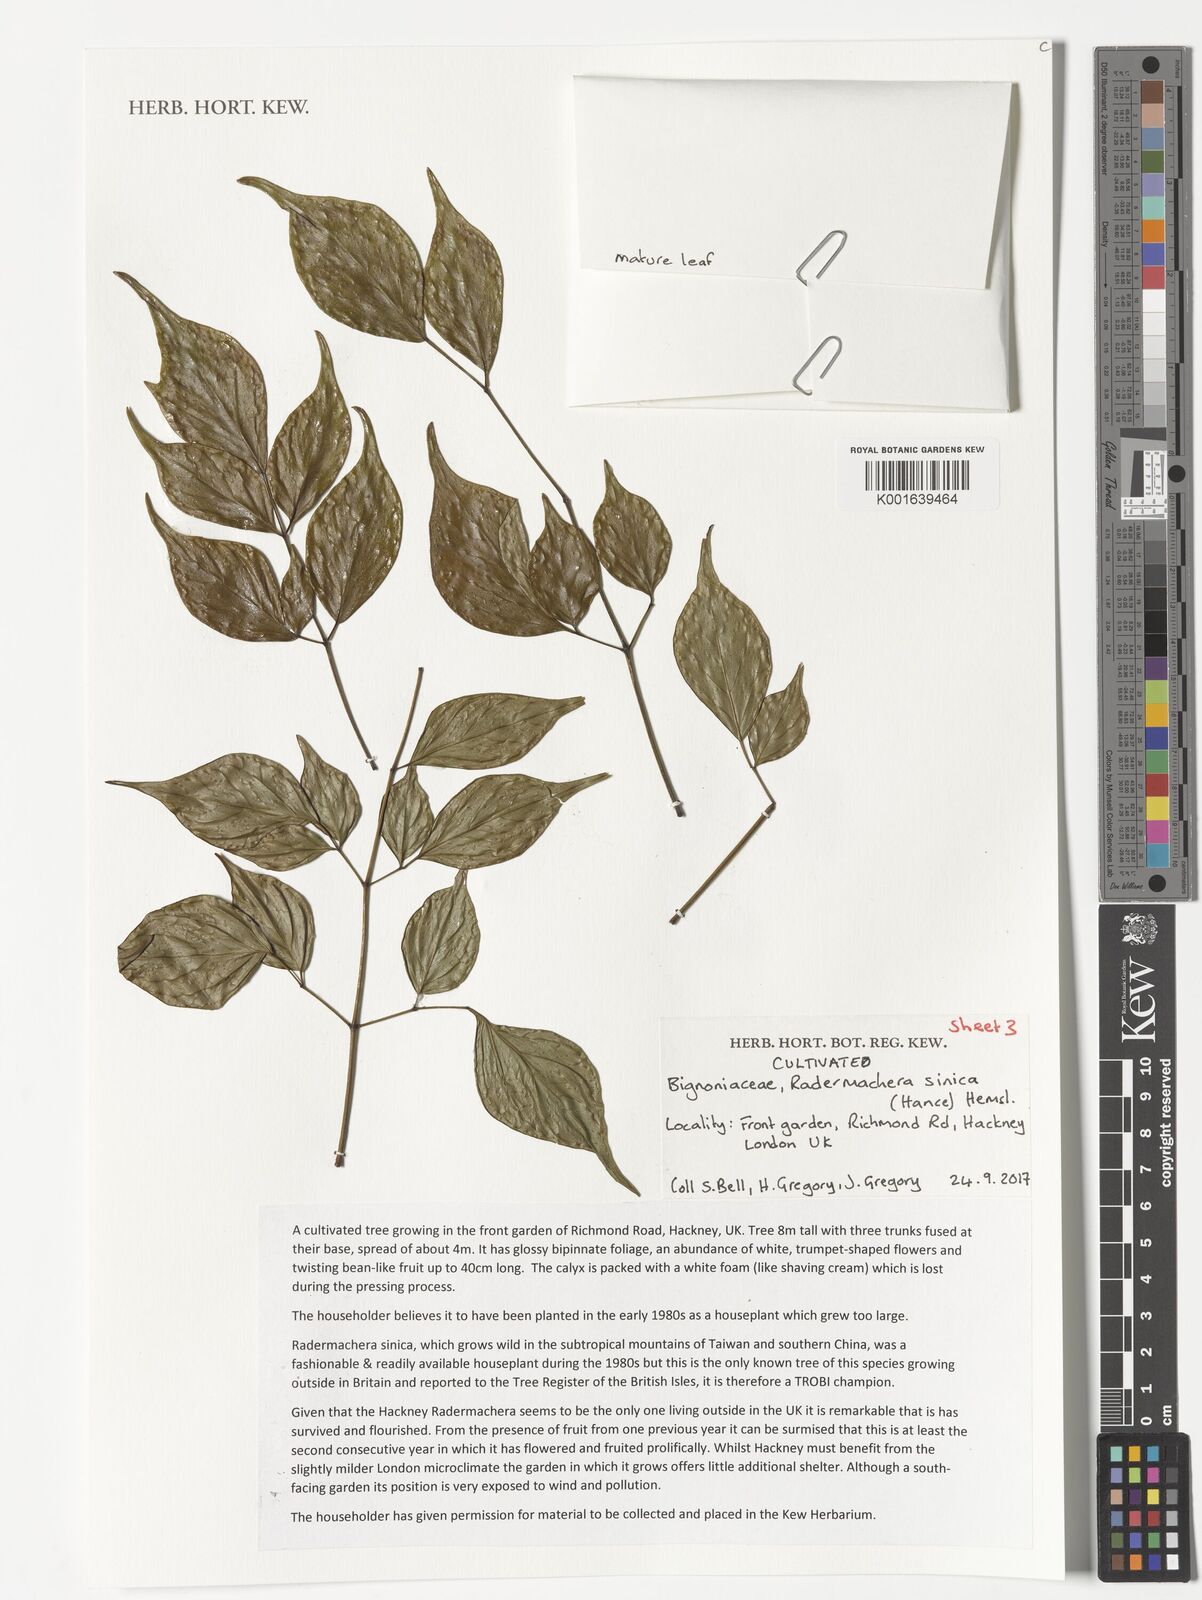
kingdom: Plantae
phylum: Tracheophyta
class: Magnoliopsida
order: Lamiales
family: Bignoniaceae
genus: Radermachera
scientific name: Radermachera sinica
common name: China doll plant
